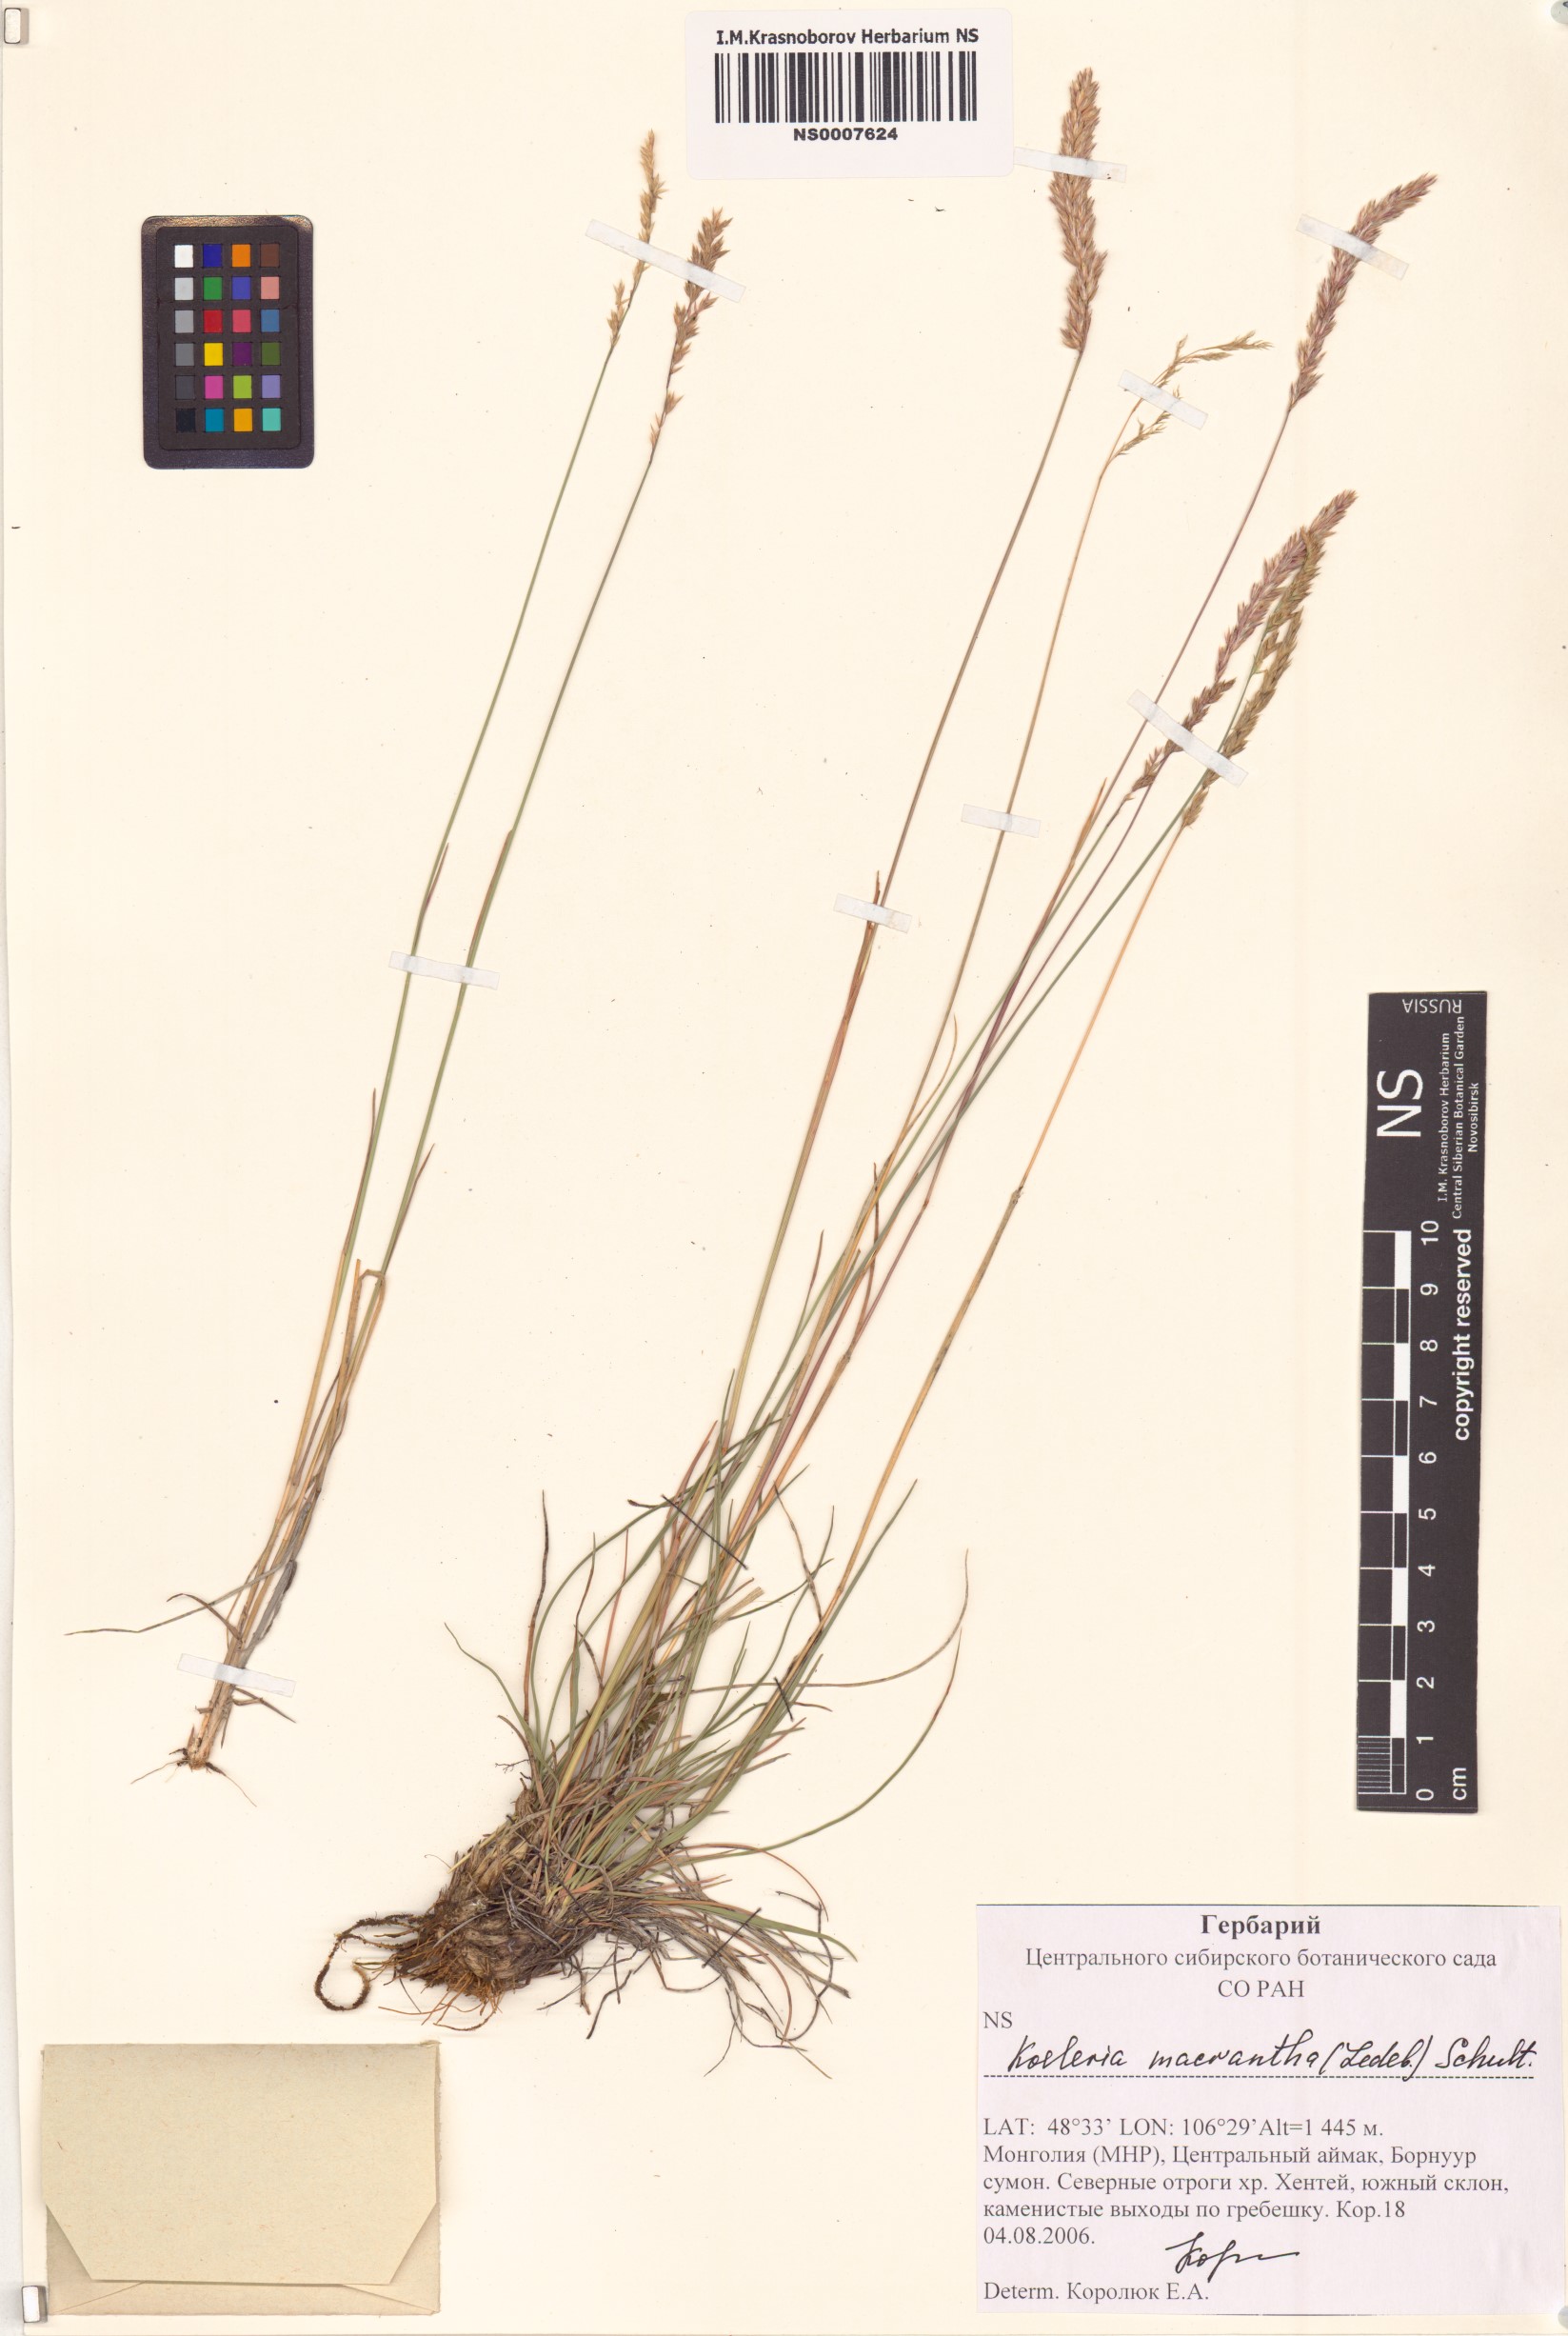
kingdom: Plantae
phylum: Tracheophyta
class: Liliopsida
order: Poales
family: Poaceae
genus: Koeleria
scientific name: Koeleria macrantha
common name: Crested hair-grass
